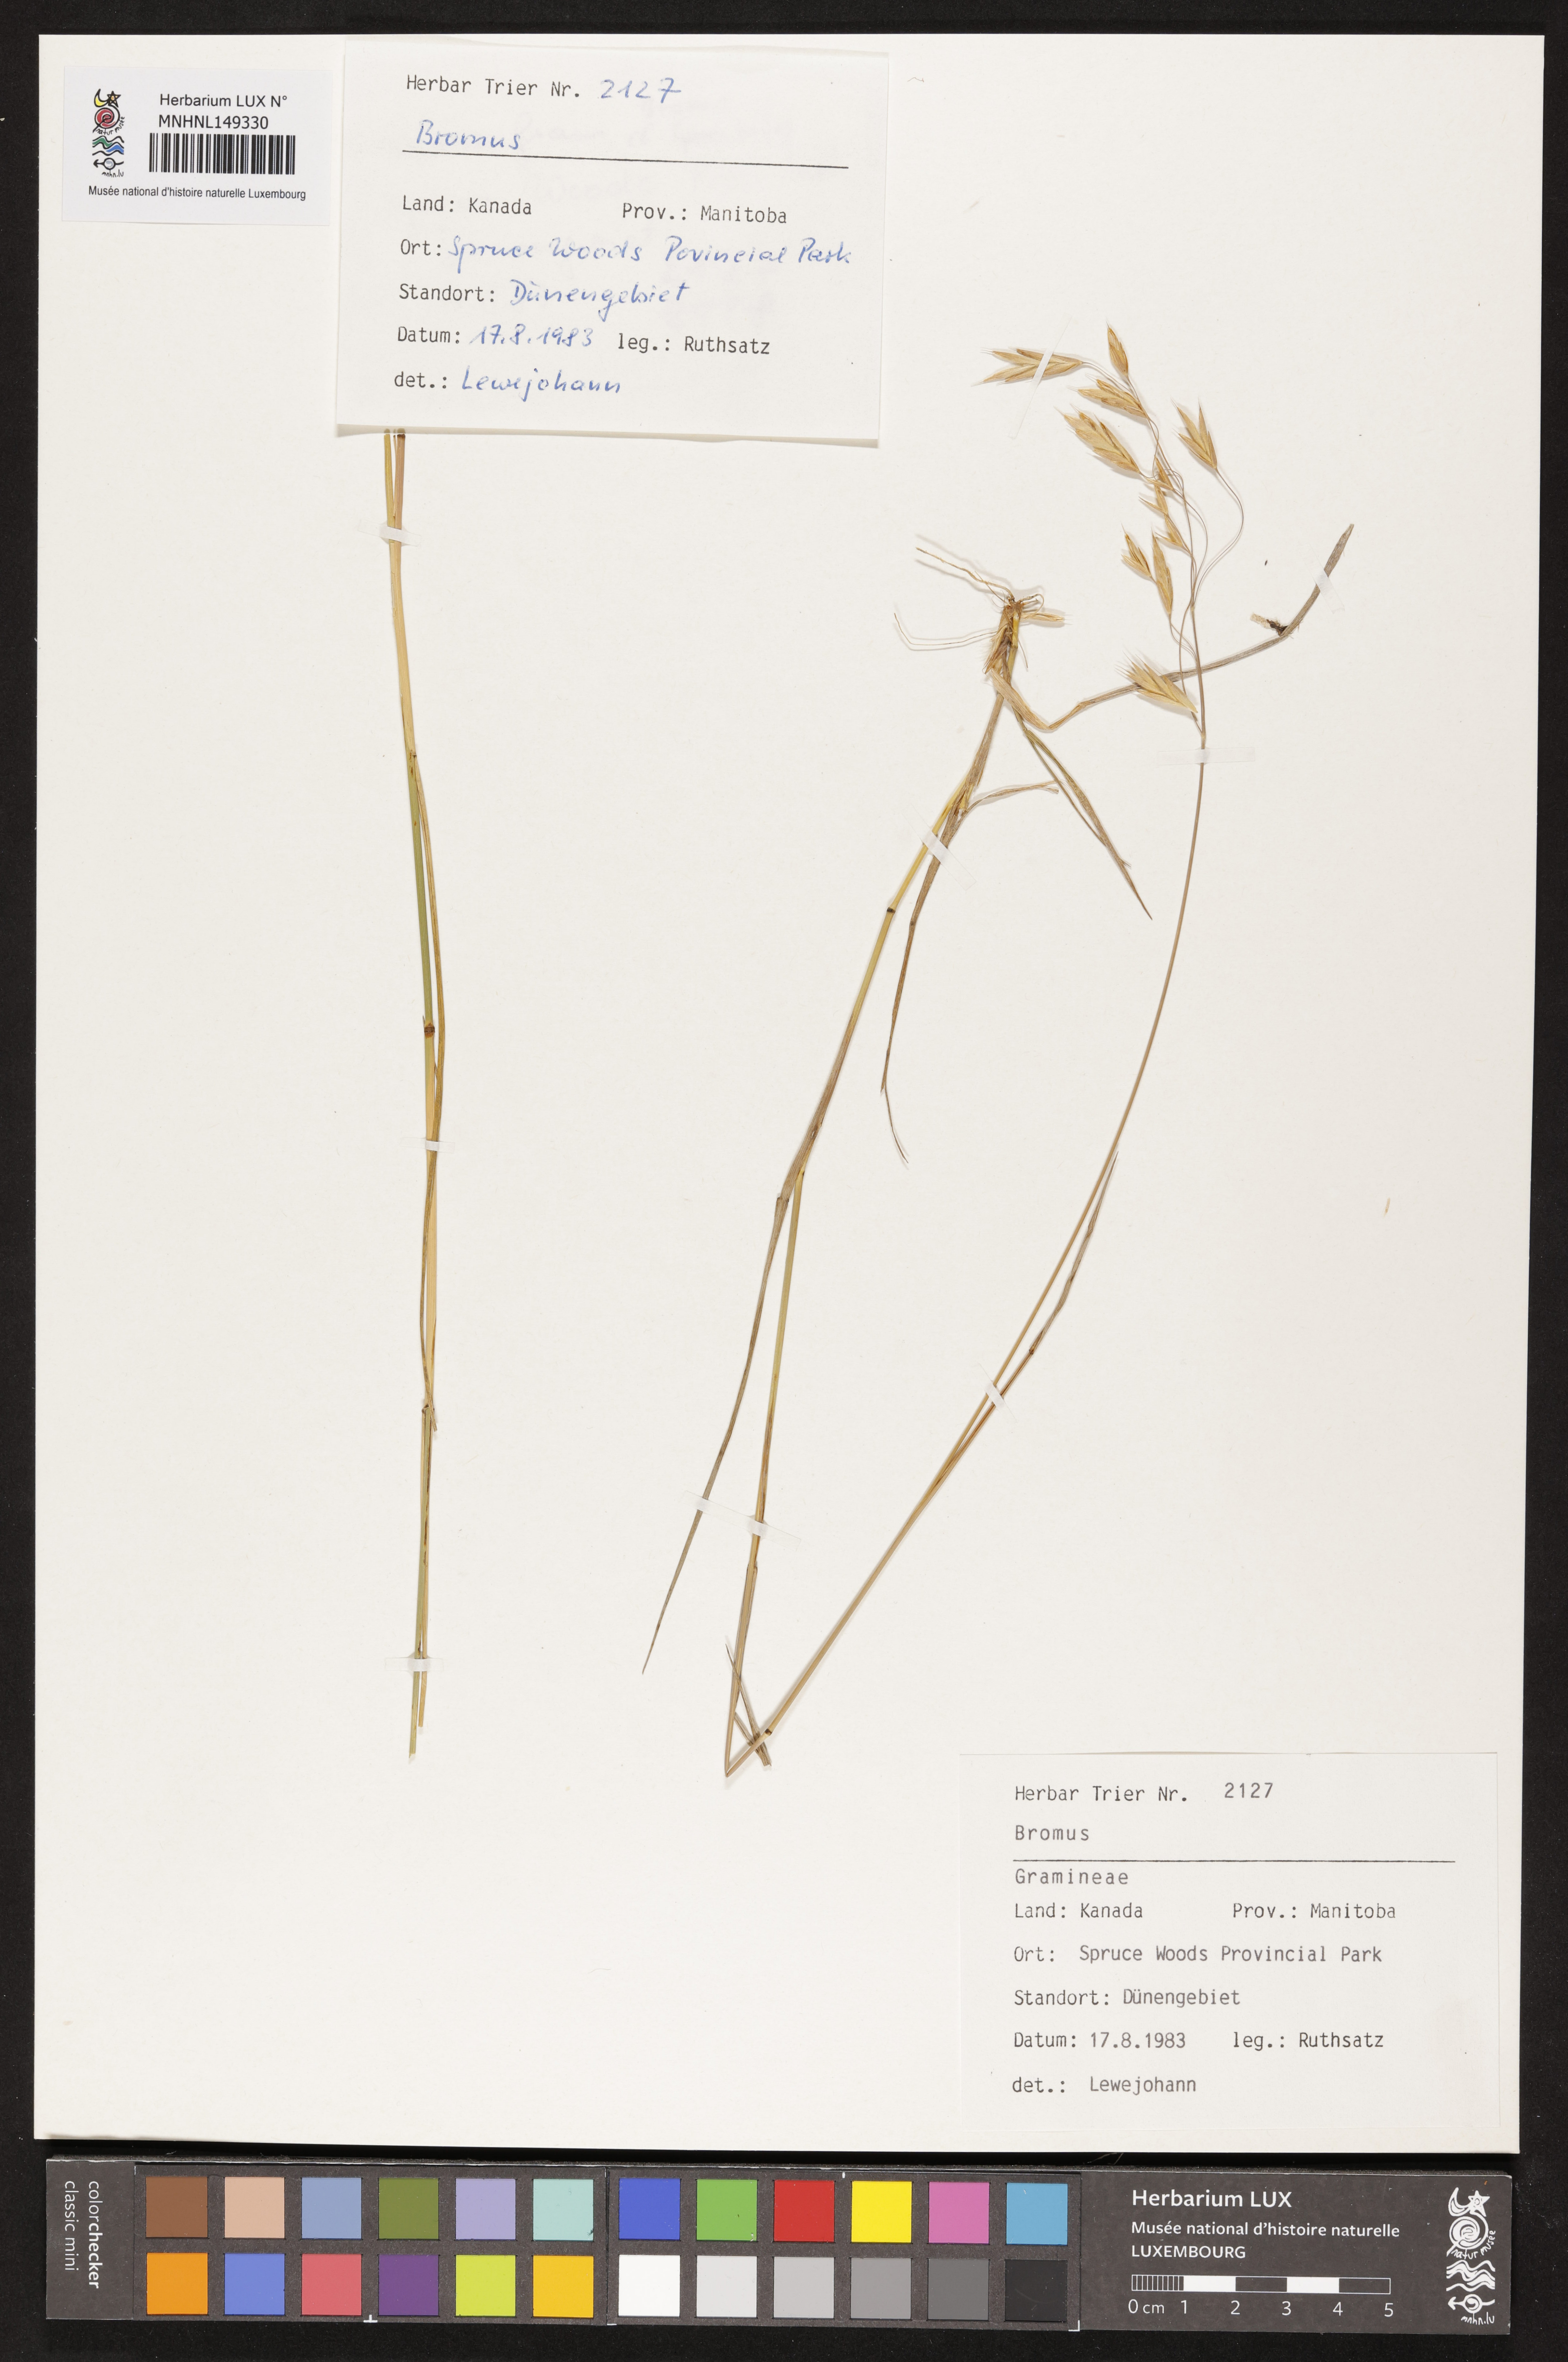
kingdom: Plantae
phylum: Tracheophyta
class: Liliopsida
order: Poales
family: Poaceae
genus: Bromus
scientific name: Bromus
